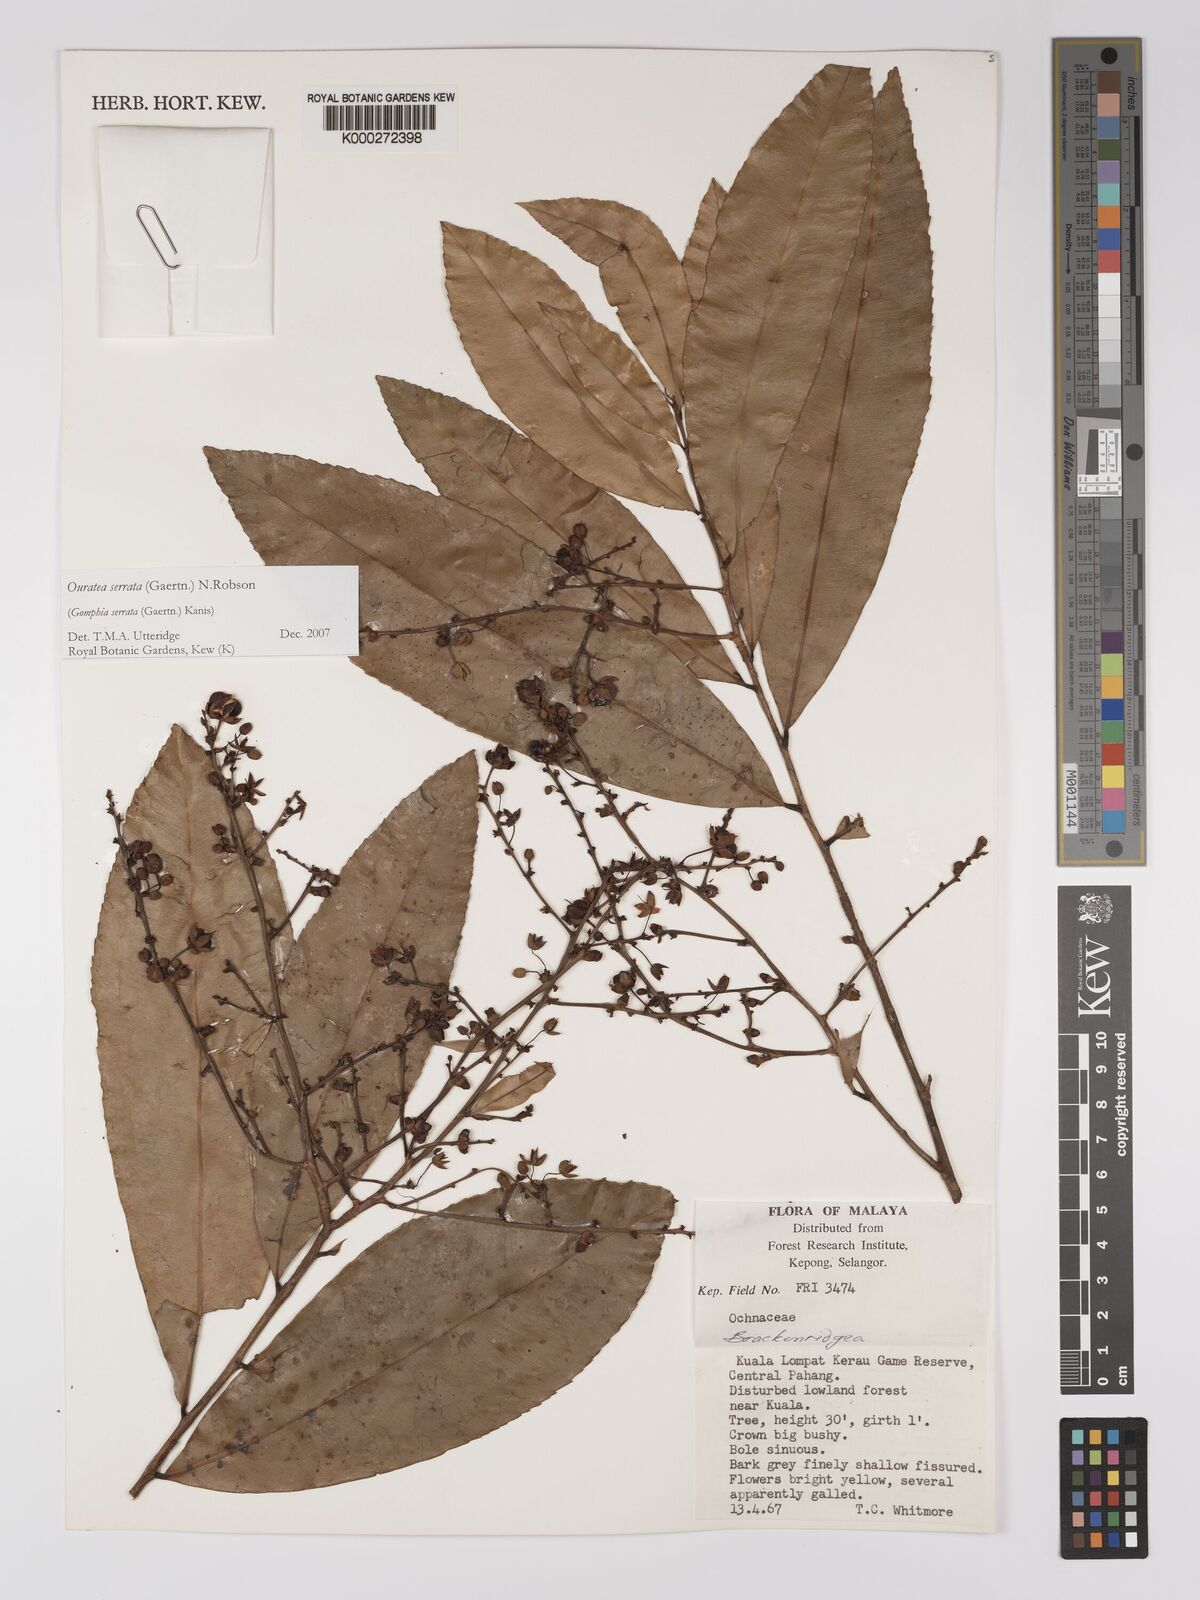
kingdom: Plantae
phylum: Tracheophyta
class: Magnoliopsida
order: Malpighiales
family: Ochnaceae
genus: Gomphia
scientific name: Gomphia serrata
